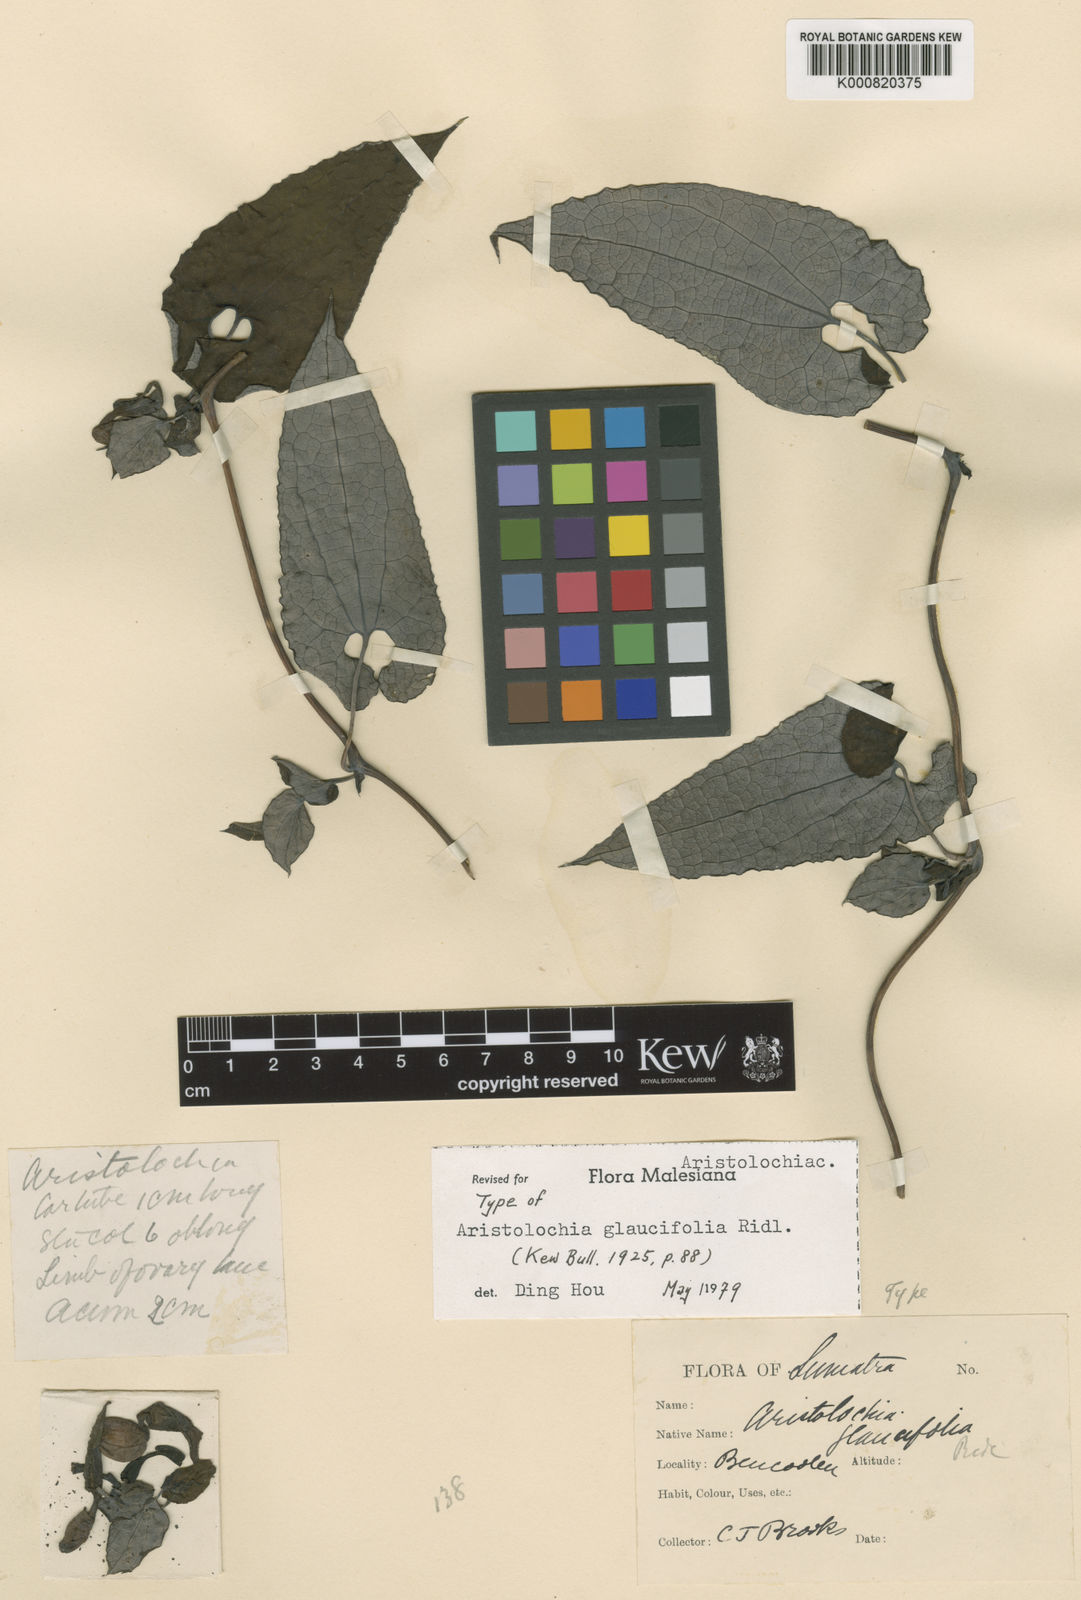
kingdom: Plantae
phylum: Tracheophyta
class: Magnoliopsida
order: Piperales
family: Aristolochiaceae
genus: Aristolochia
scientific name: Aristolochia glaucifolia
